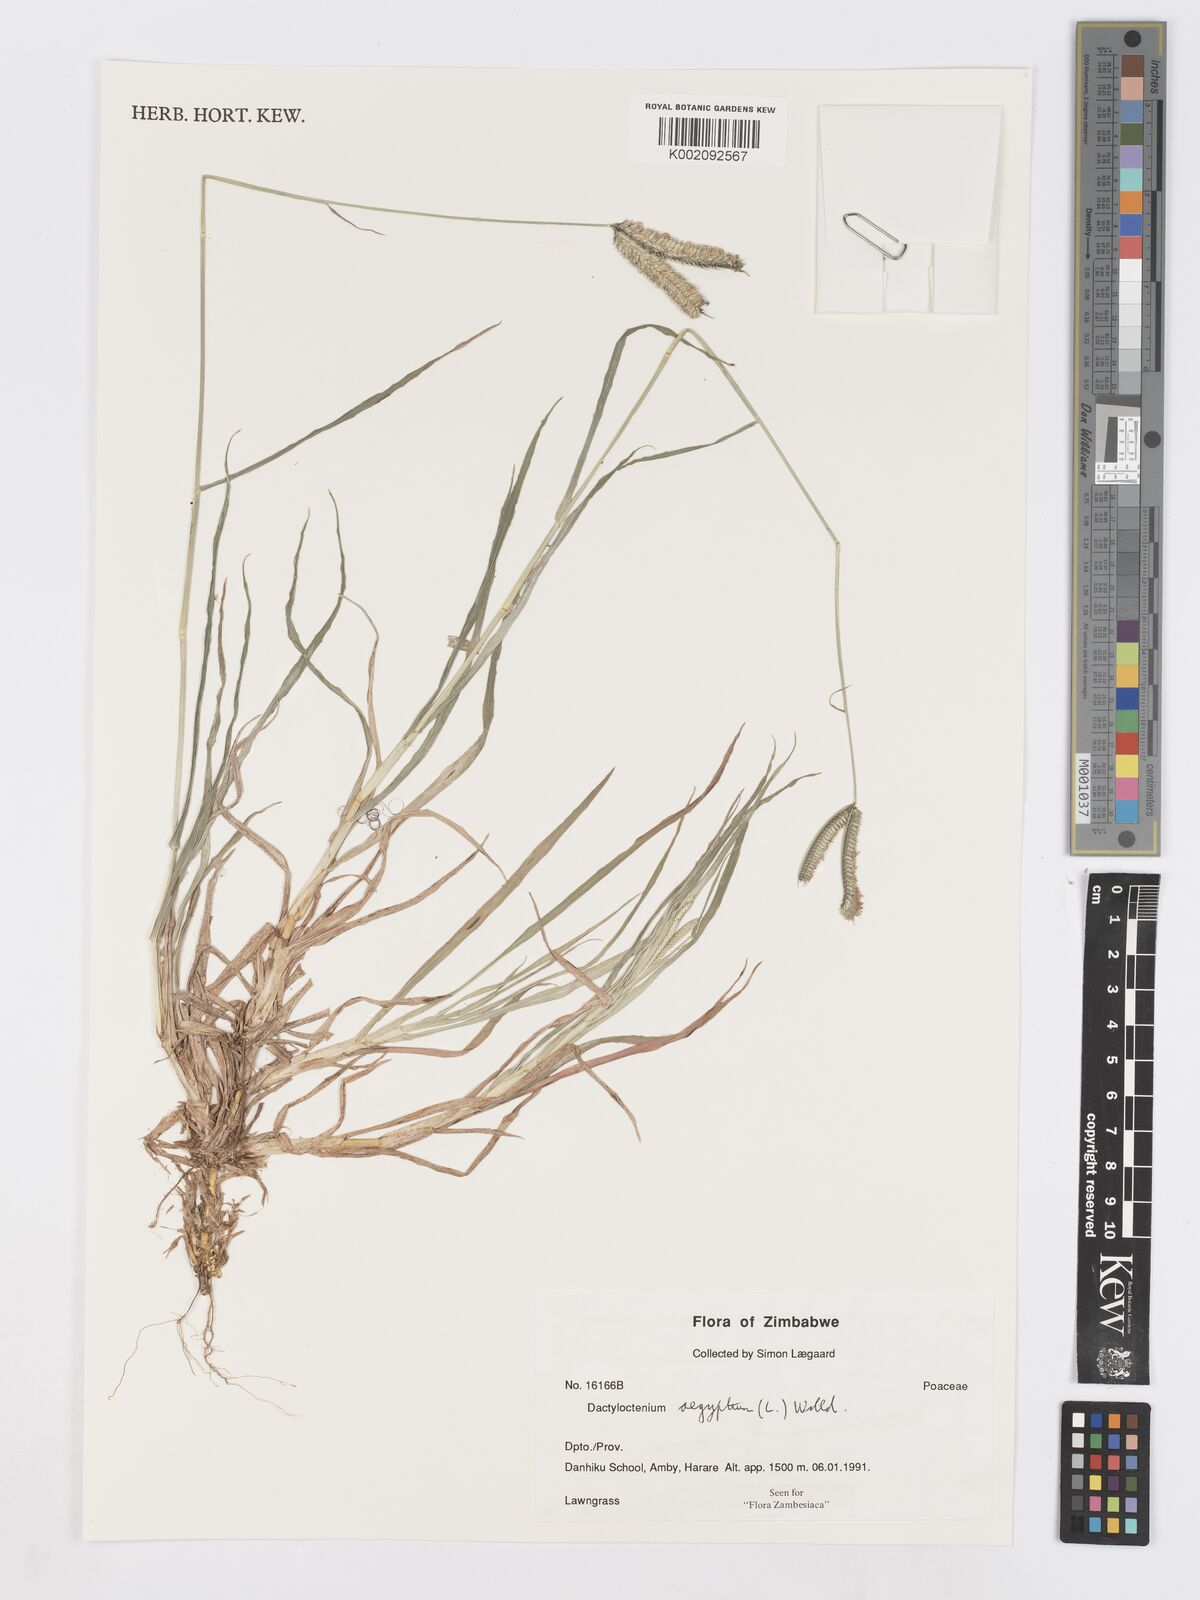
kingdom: Plantae
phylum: Tracheophyta
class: Liliopsida
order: Poales
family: Poaceae
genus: Dactyloctenium
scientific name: Dactyloctenium aegyptium
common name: Egyptian grass
